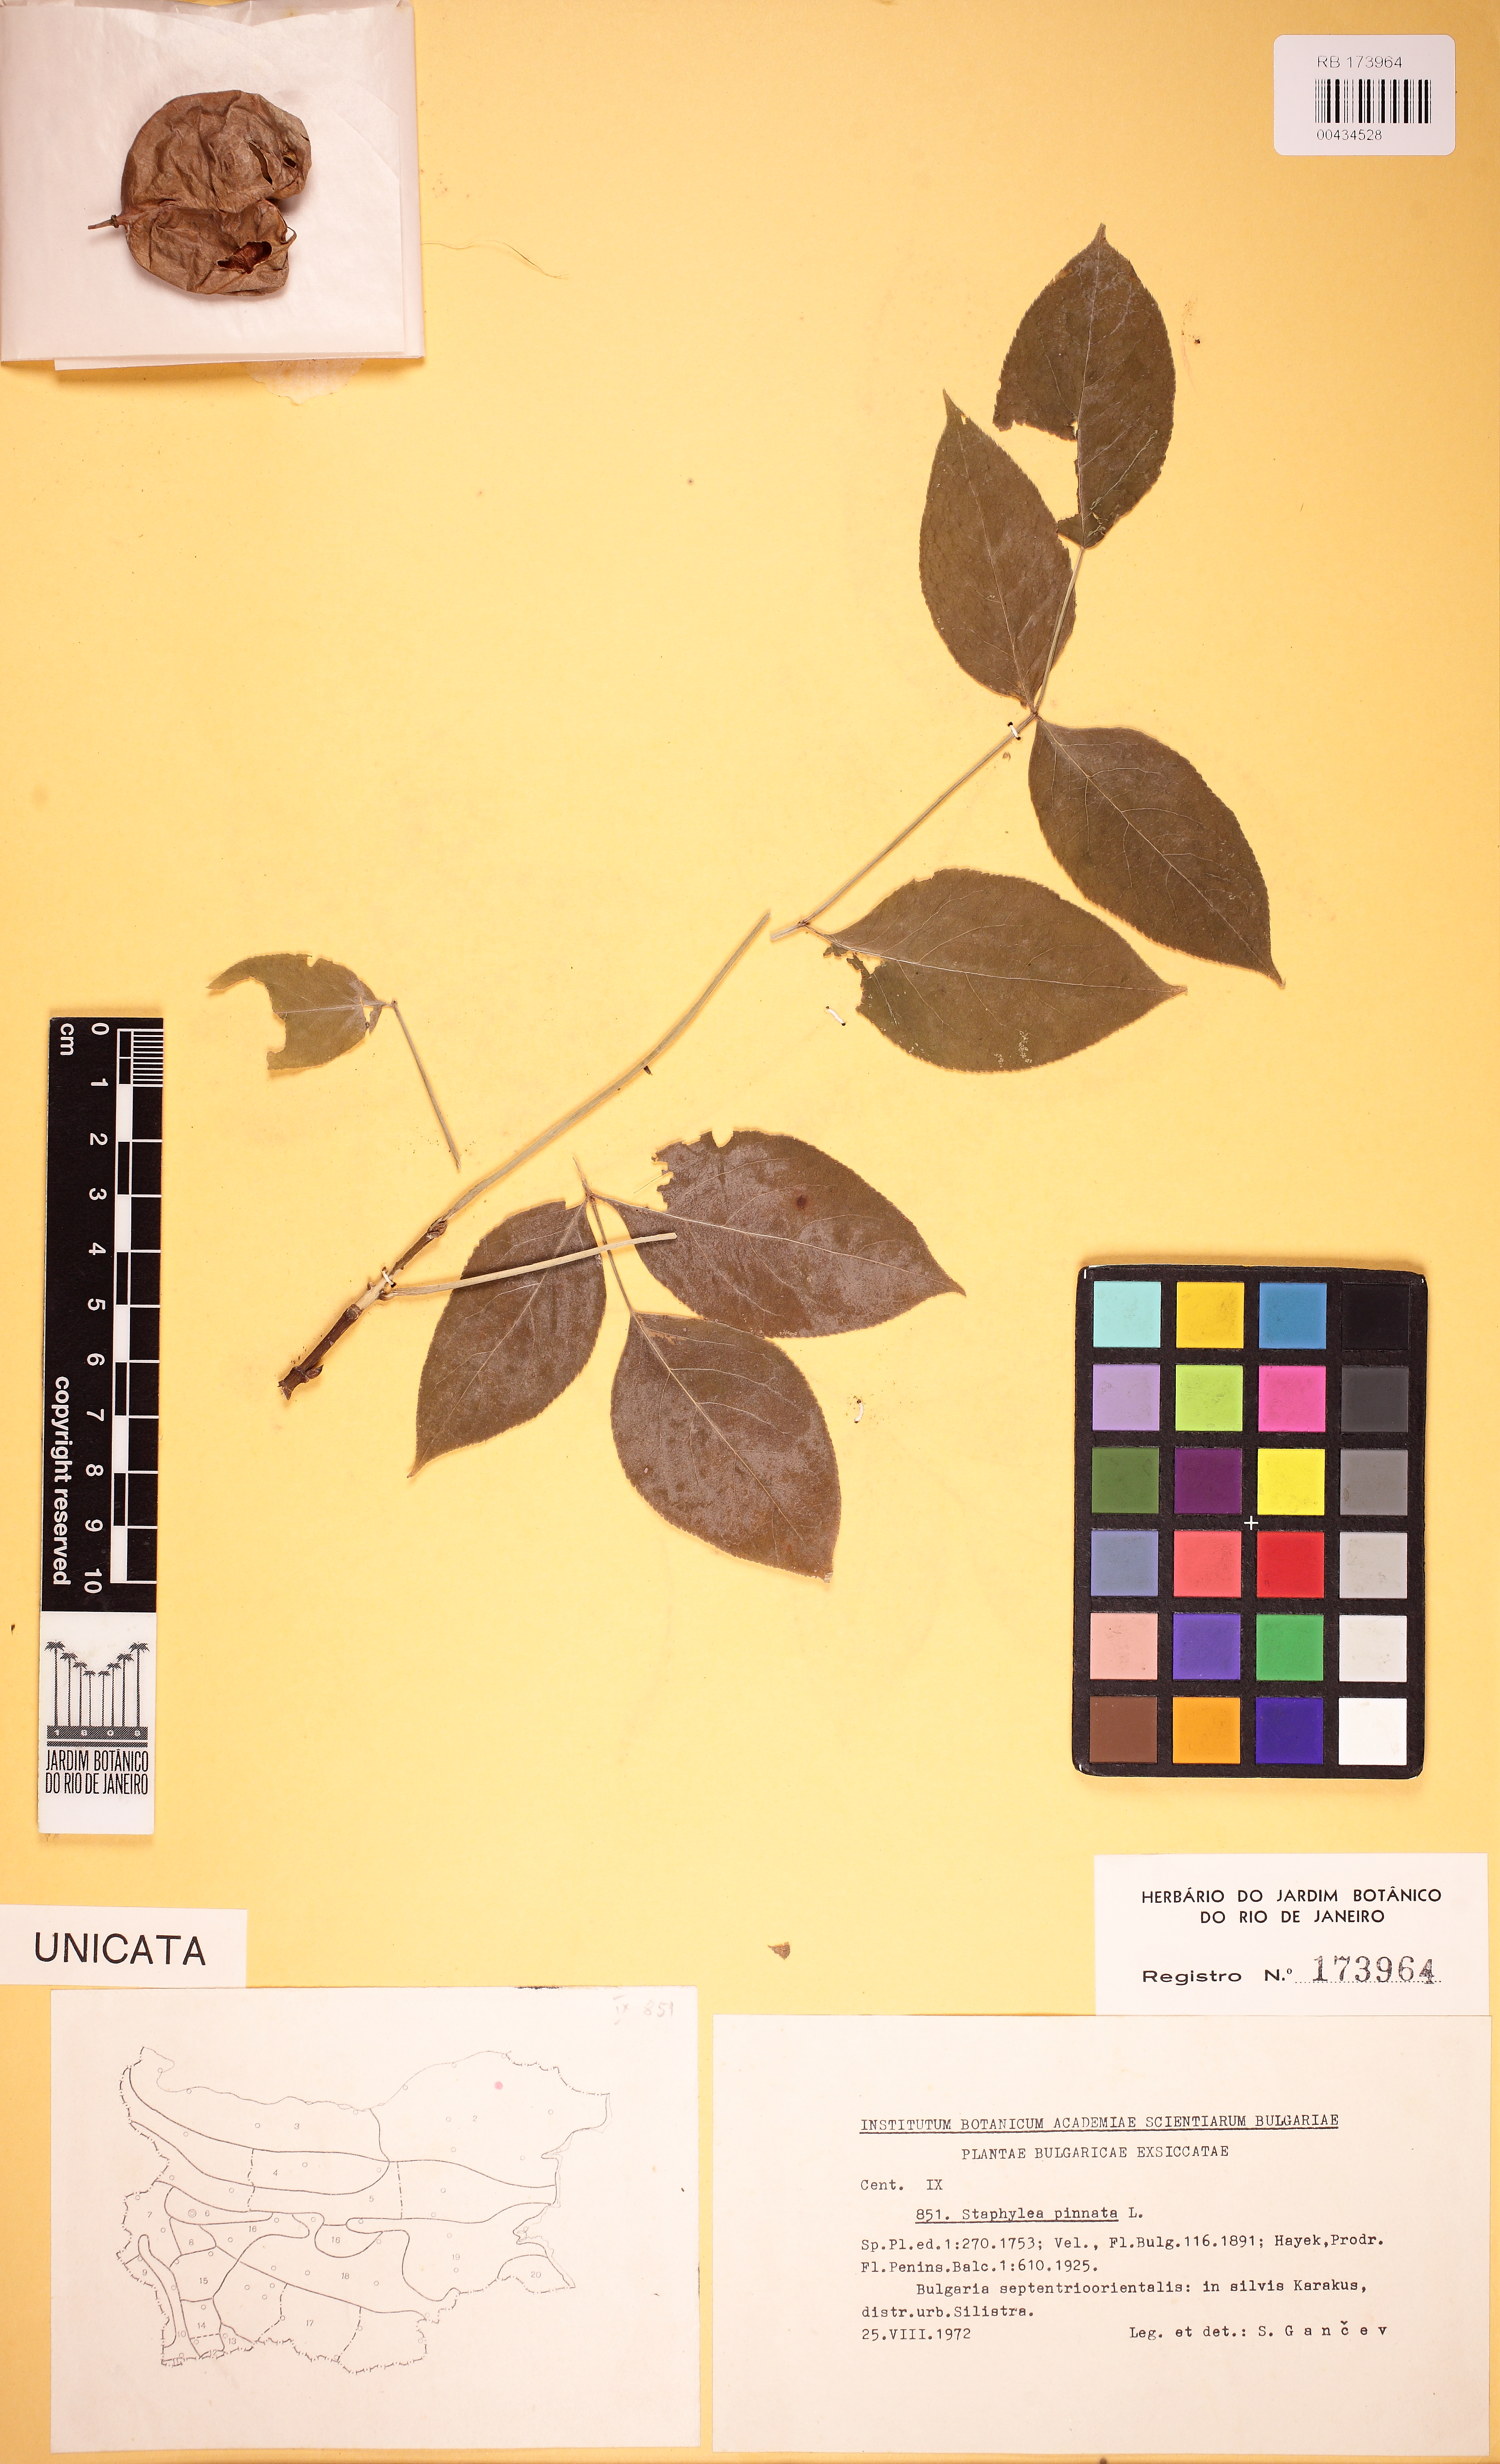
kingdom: Plantae
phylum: Tracheophyta
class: Magnoliopsida
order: Crossosomatales
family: Staphyleaceae
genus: Staphylea
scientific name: Staphylea pinnata
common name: Bladdernut
